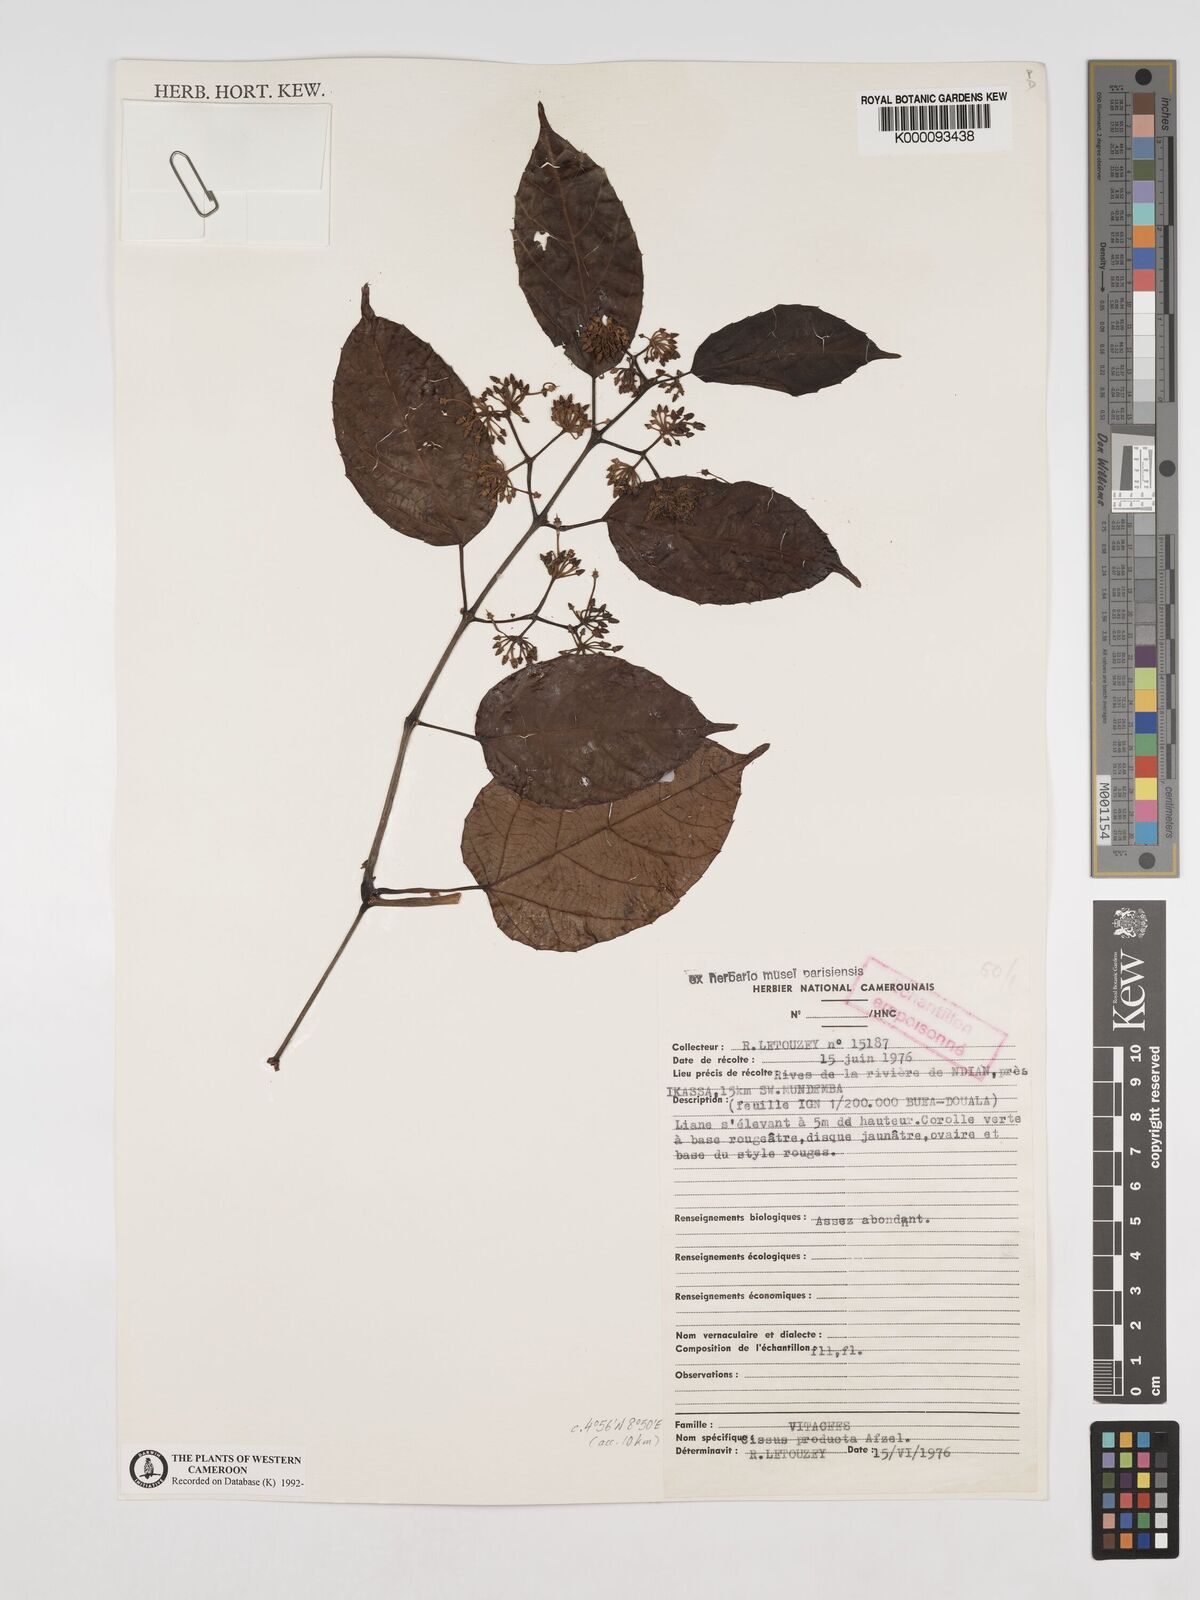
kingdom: Plantae
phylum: Tracheophyta
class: Magnoliopsida
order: Vitales
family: Vitaceae
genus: Cissus
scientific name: Cissus producta
